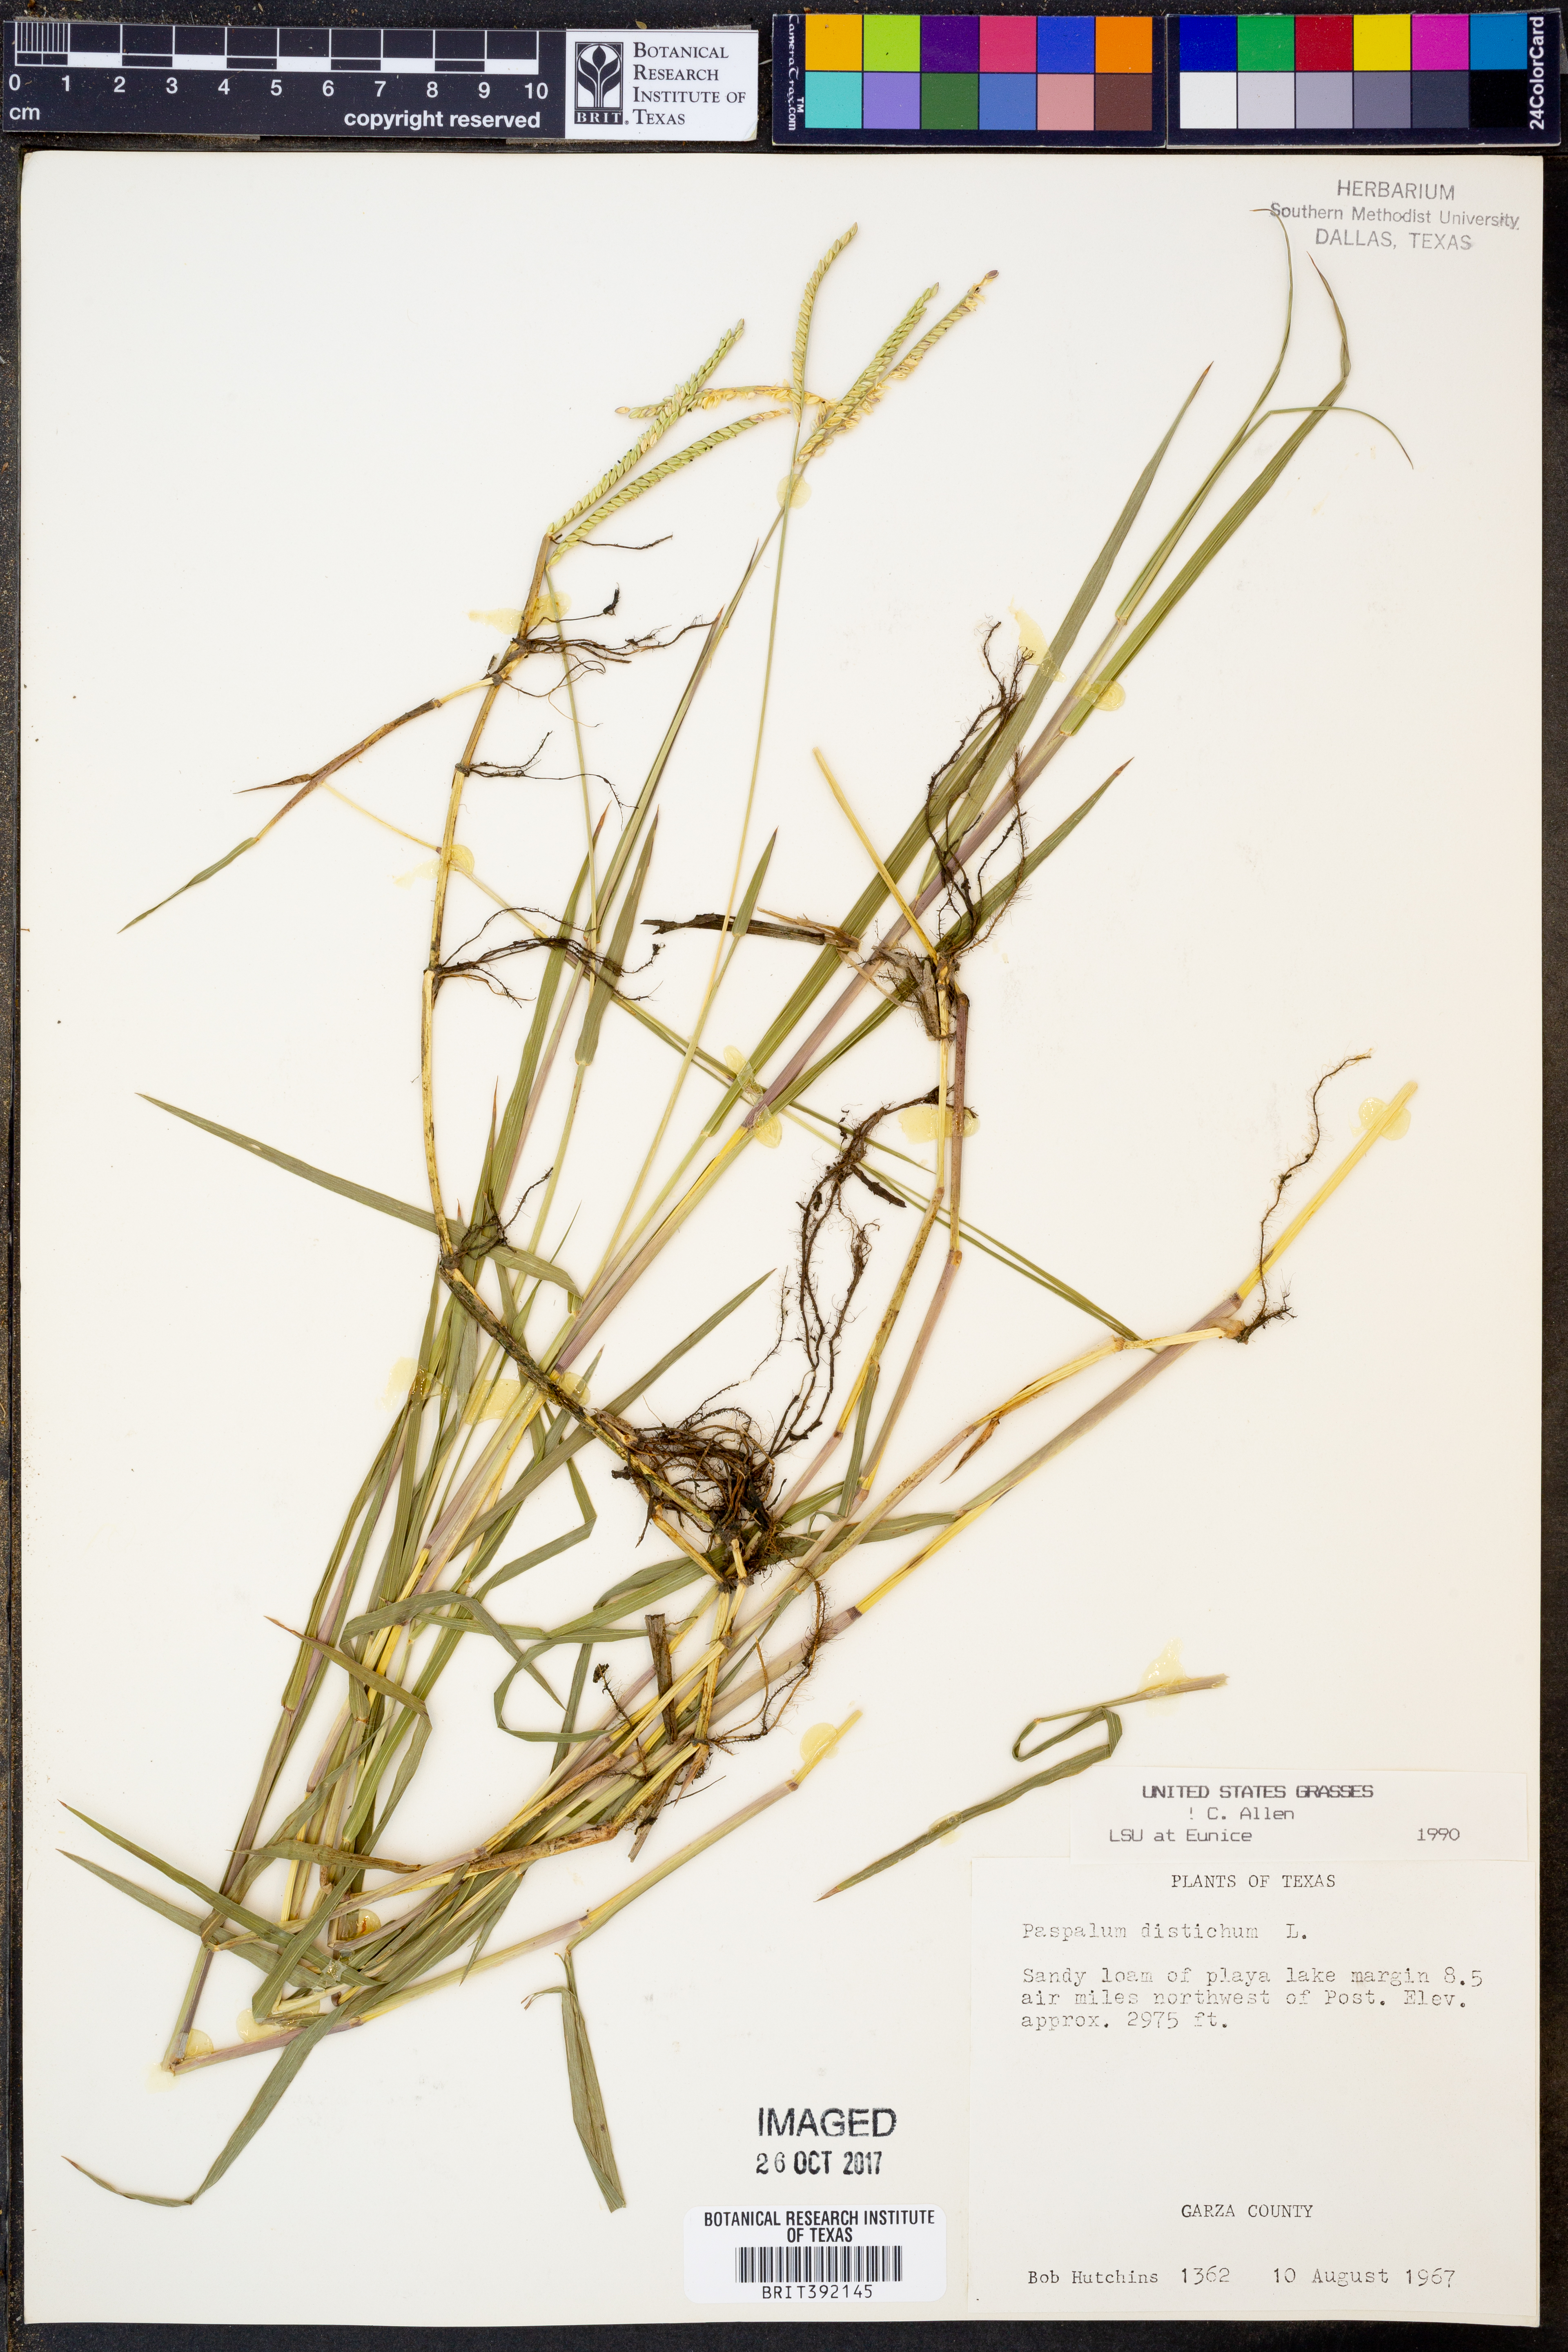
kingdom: Plantae
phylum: Tracheophyta
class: Liliopsida
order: Poales
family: Poaceae
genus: Paspalum
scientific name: Paspalum distichum
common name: Knotgrass
